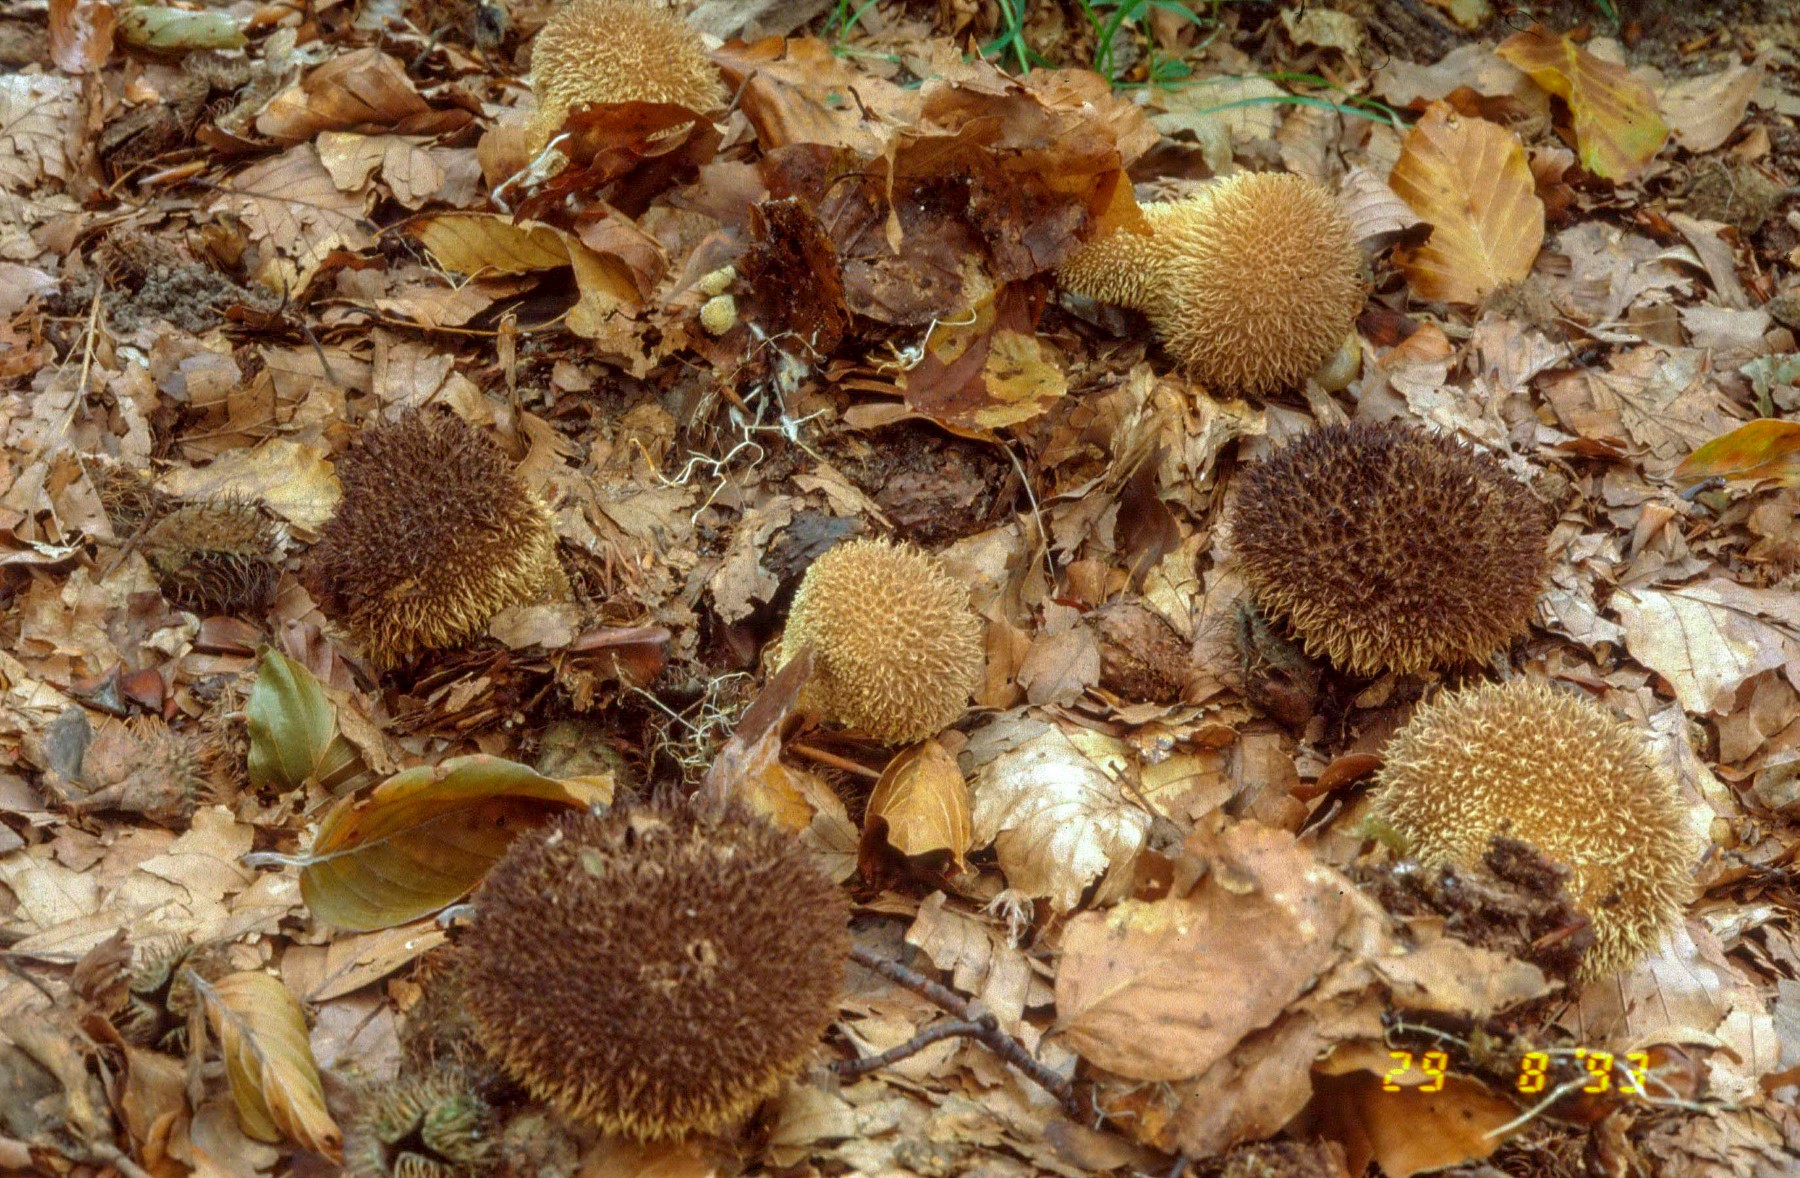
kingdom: Fungi
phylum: Basidiomycota
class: Agaricomycetes
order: Agaricales
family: Lycoperdaceae
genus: Lycoperdon
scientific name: Lycoperdon echinatum
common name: pindsvine-støvbold
